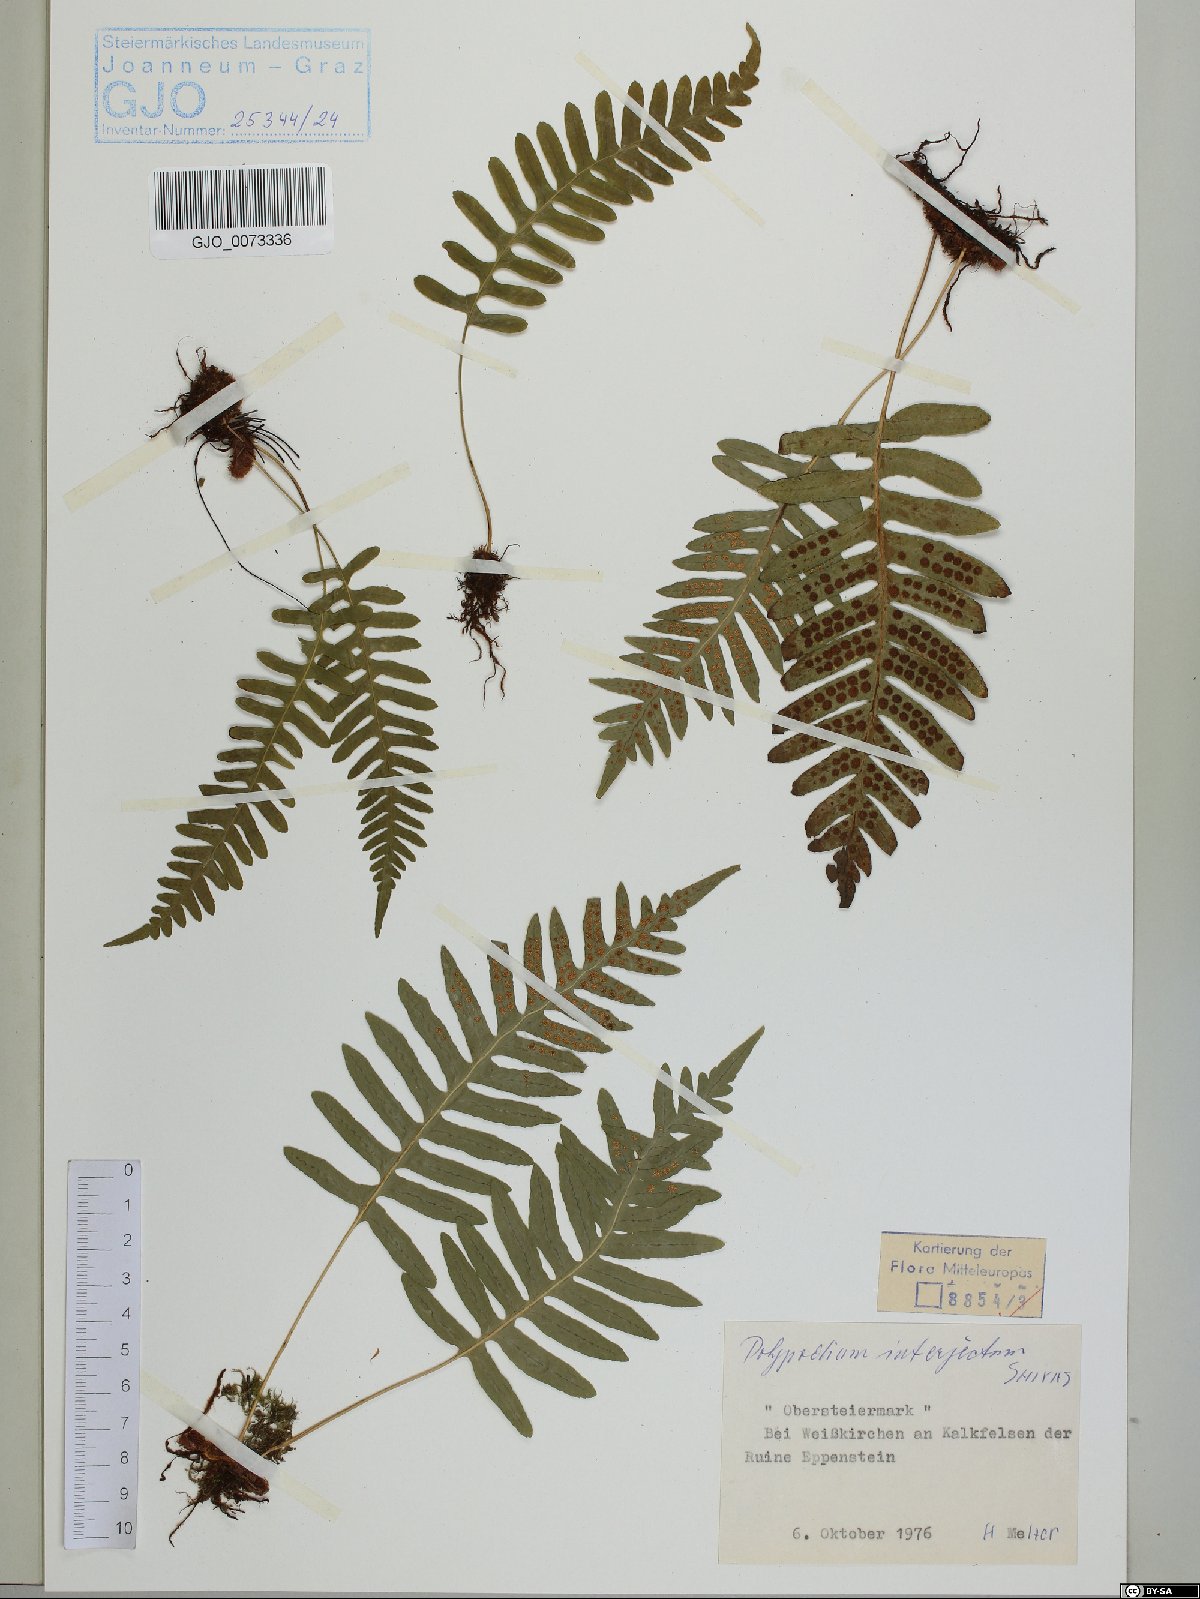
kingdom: Plantae
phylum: Tracheophyta
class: Polypodiopsida
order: Polypodiales
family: Polypodiaceae
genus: Polypodium
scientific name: Polypodium interjectum
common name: Intermediate polypody
